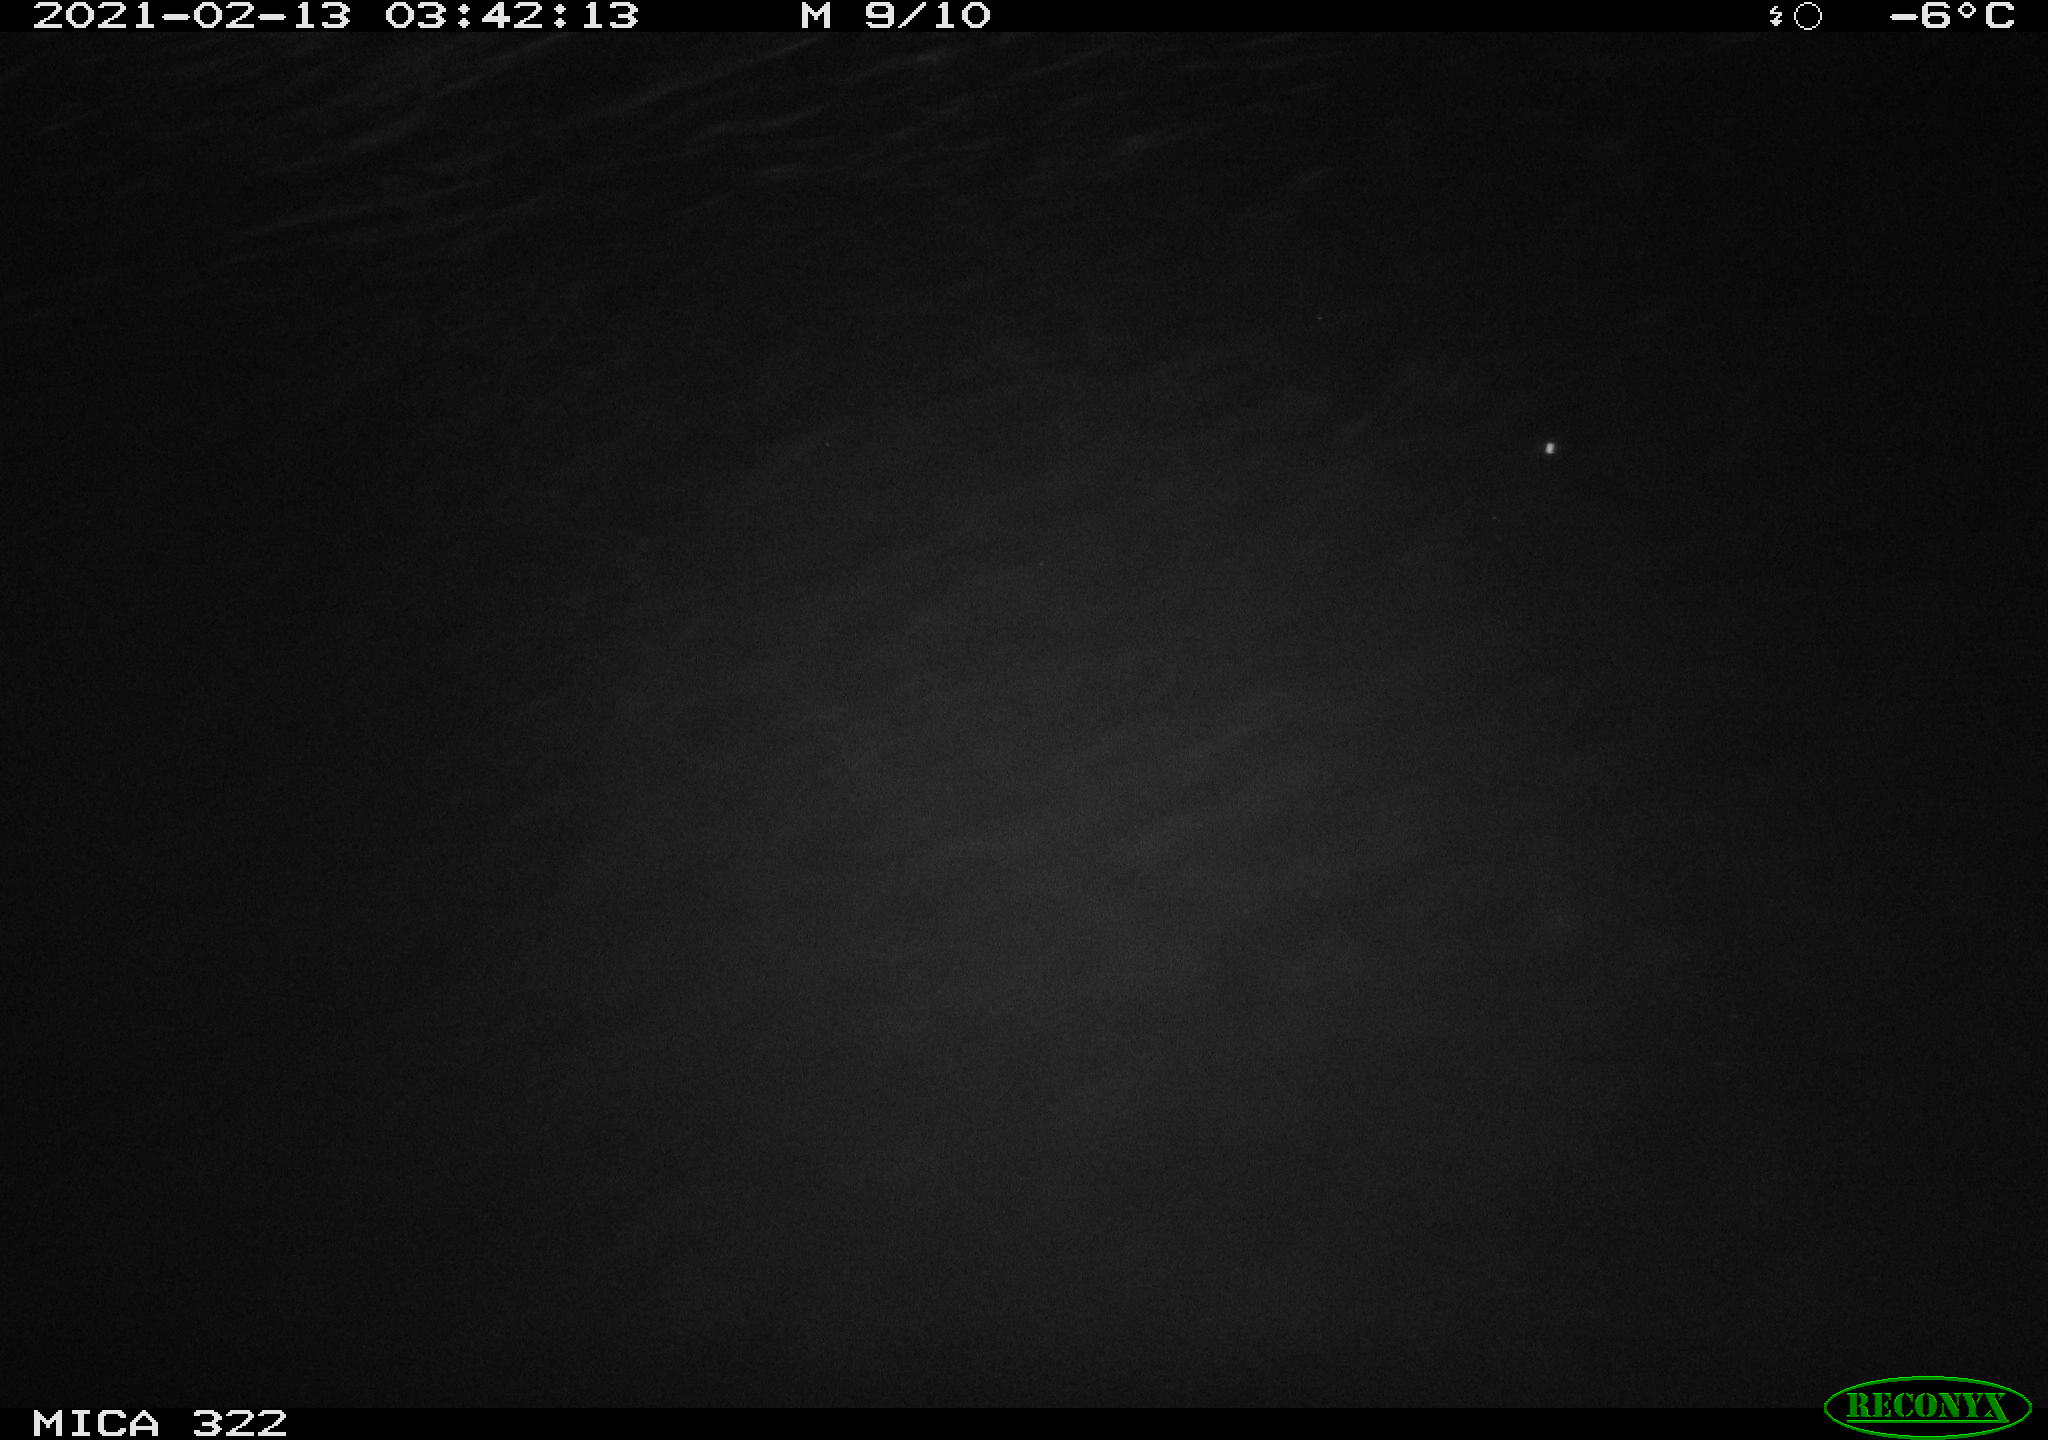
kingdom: Animalia
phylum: Chordata
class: Aves
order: Gruiformes
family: Rallidae
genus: Fulica
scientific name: Fulica atra
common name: Eurasian coot
